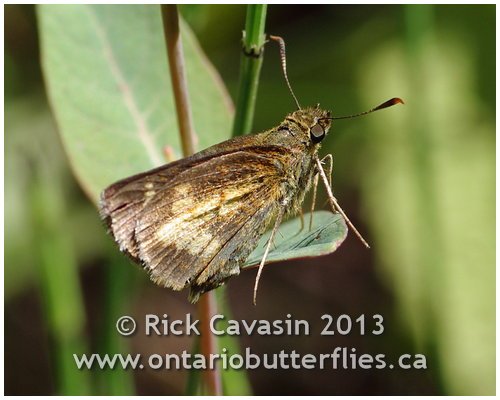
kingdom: Animalia
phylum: Arthropoda
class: Insecta
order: Lepidoptera
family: Hesperiidae
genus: Poanes
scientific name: Poanes massasoit
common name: Mulberry Wing
